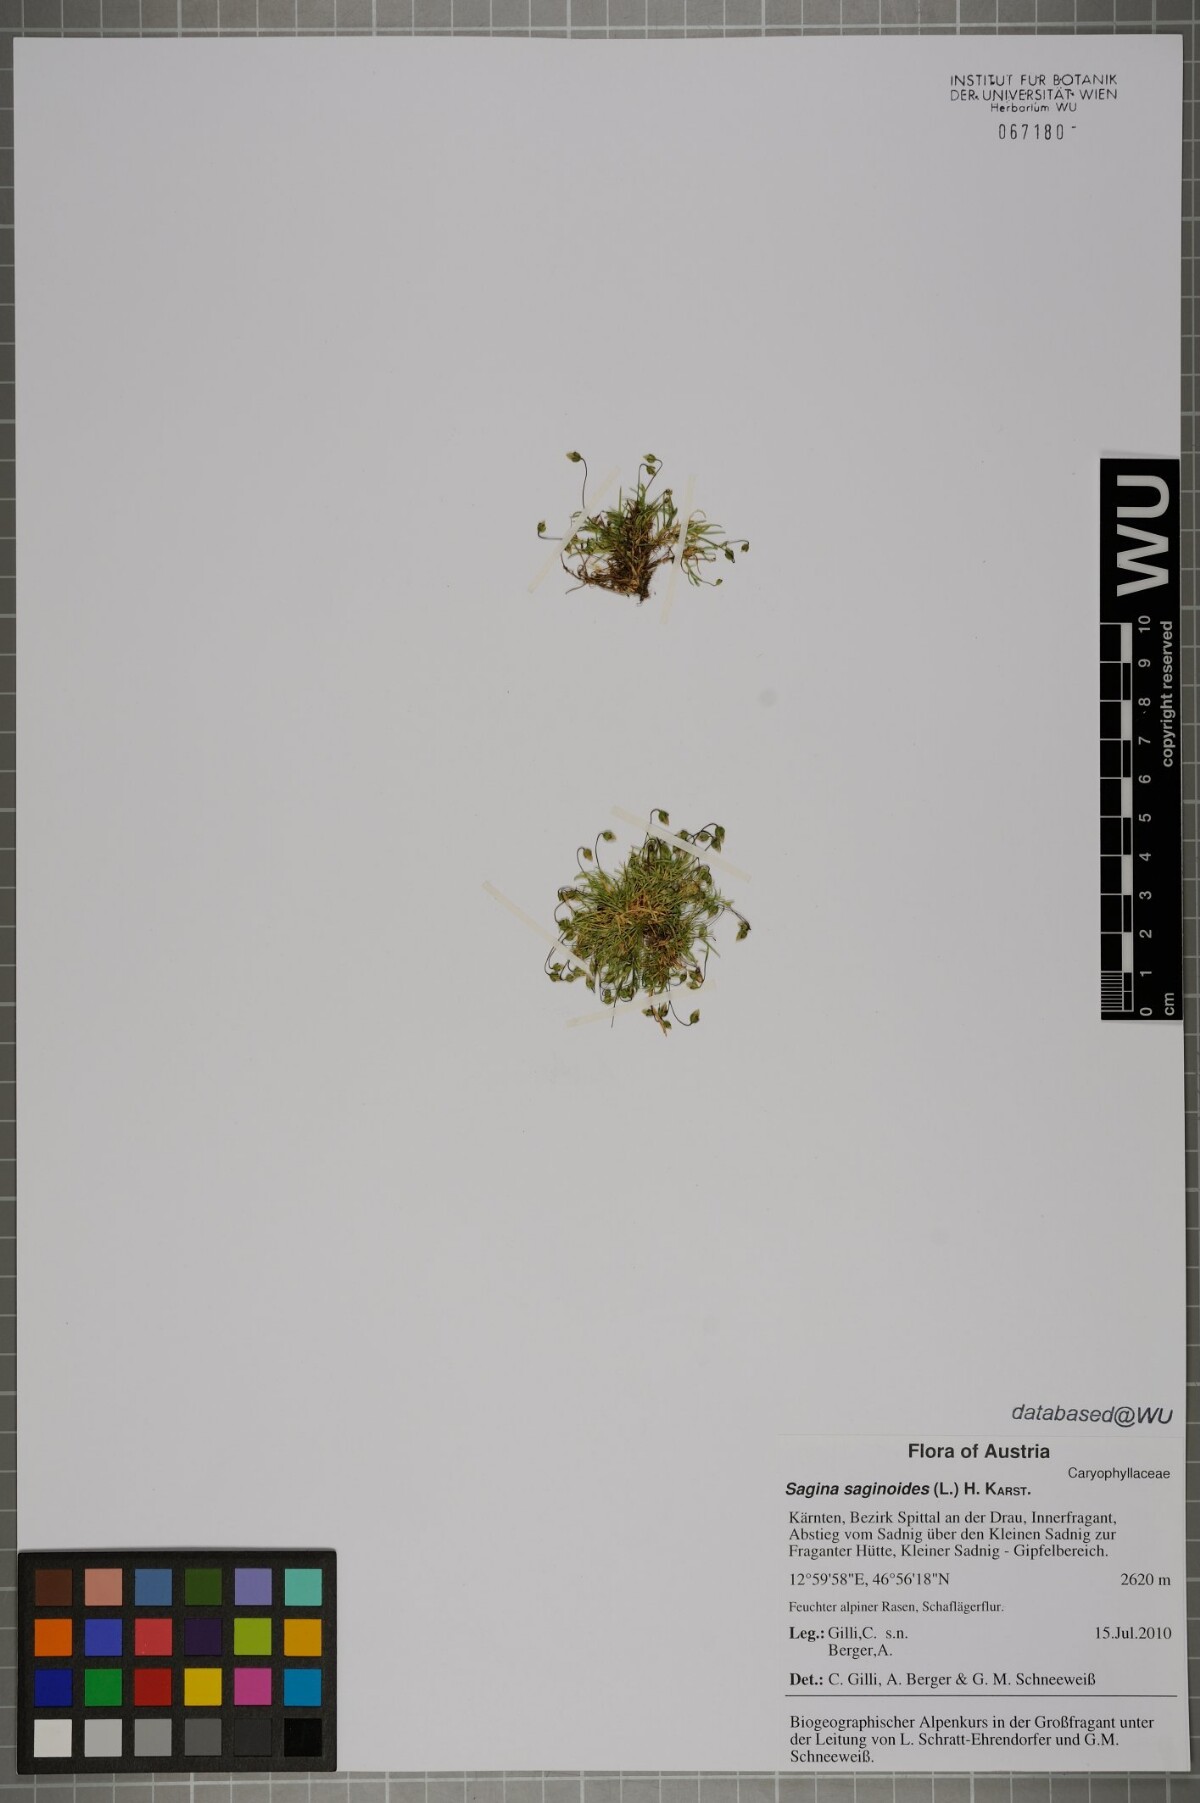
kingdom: Plantae
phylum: Tracheophyta
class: Magnoliopsida
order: Caryophyllales
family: Caryophyllaceae
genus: Sagina
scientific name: Sagina saginoides
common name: Alpine pearlwort
